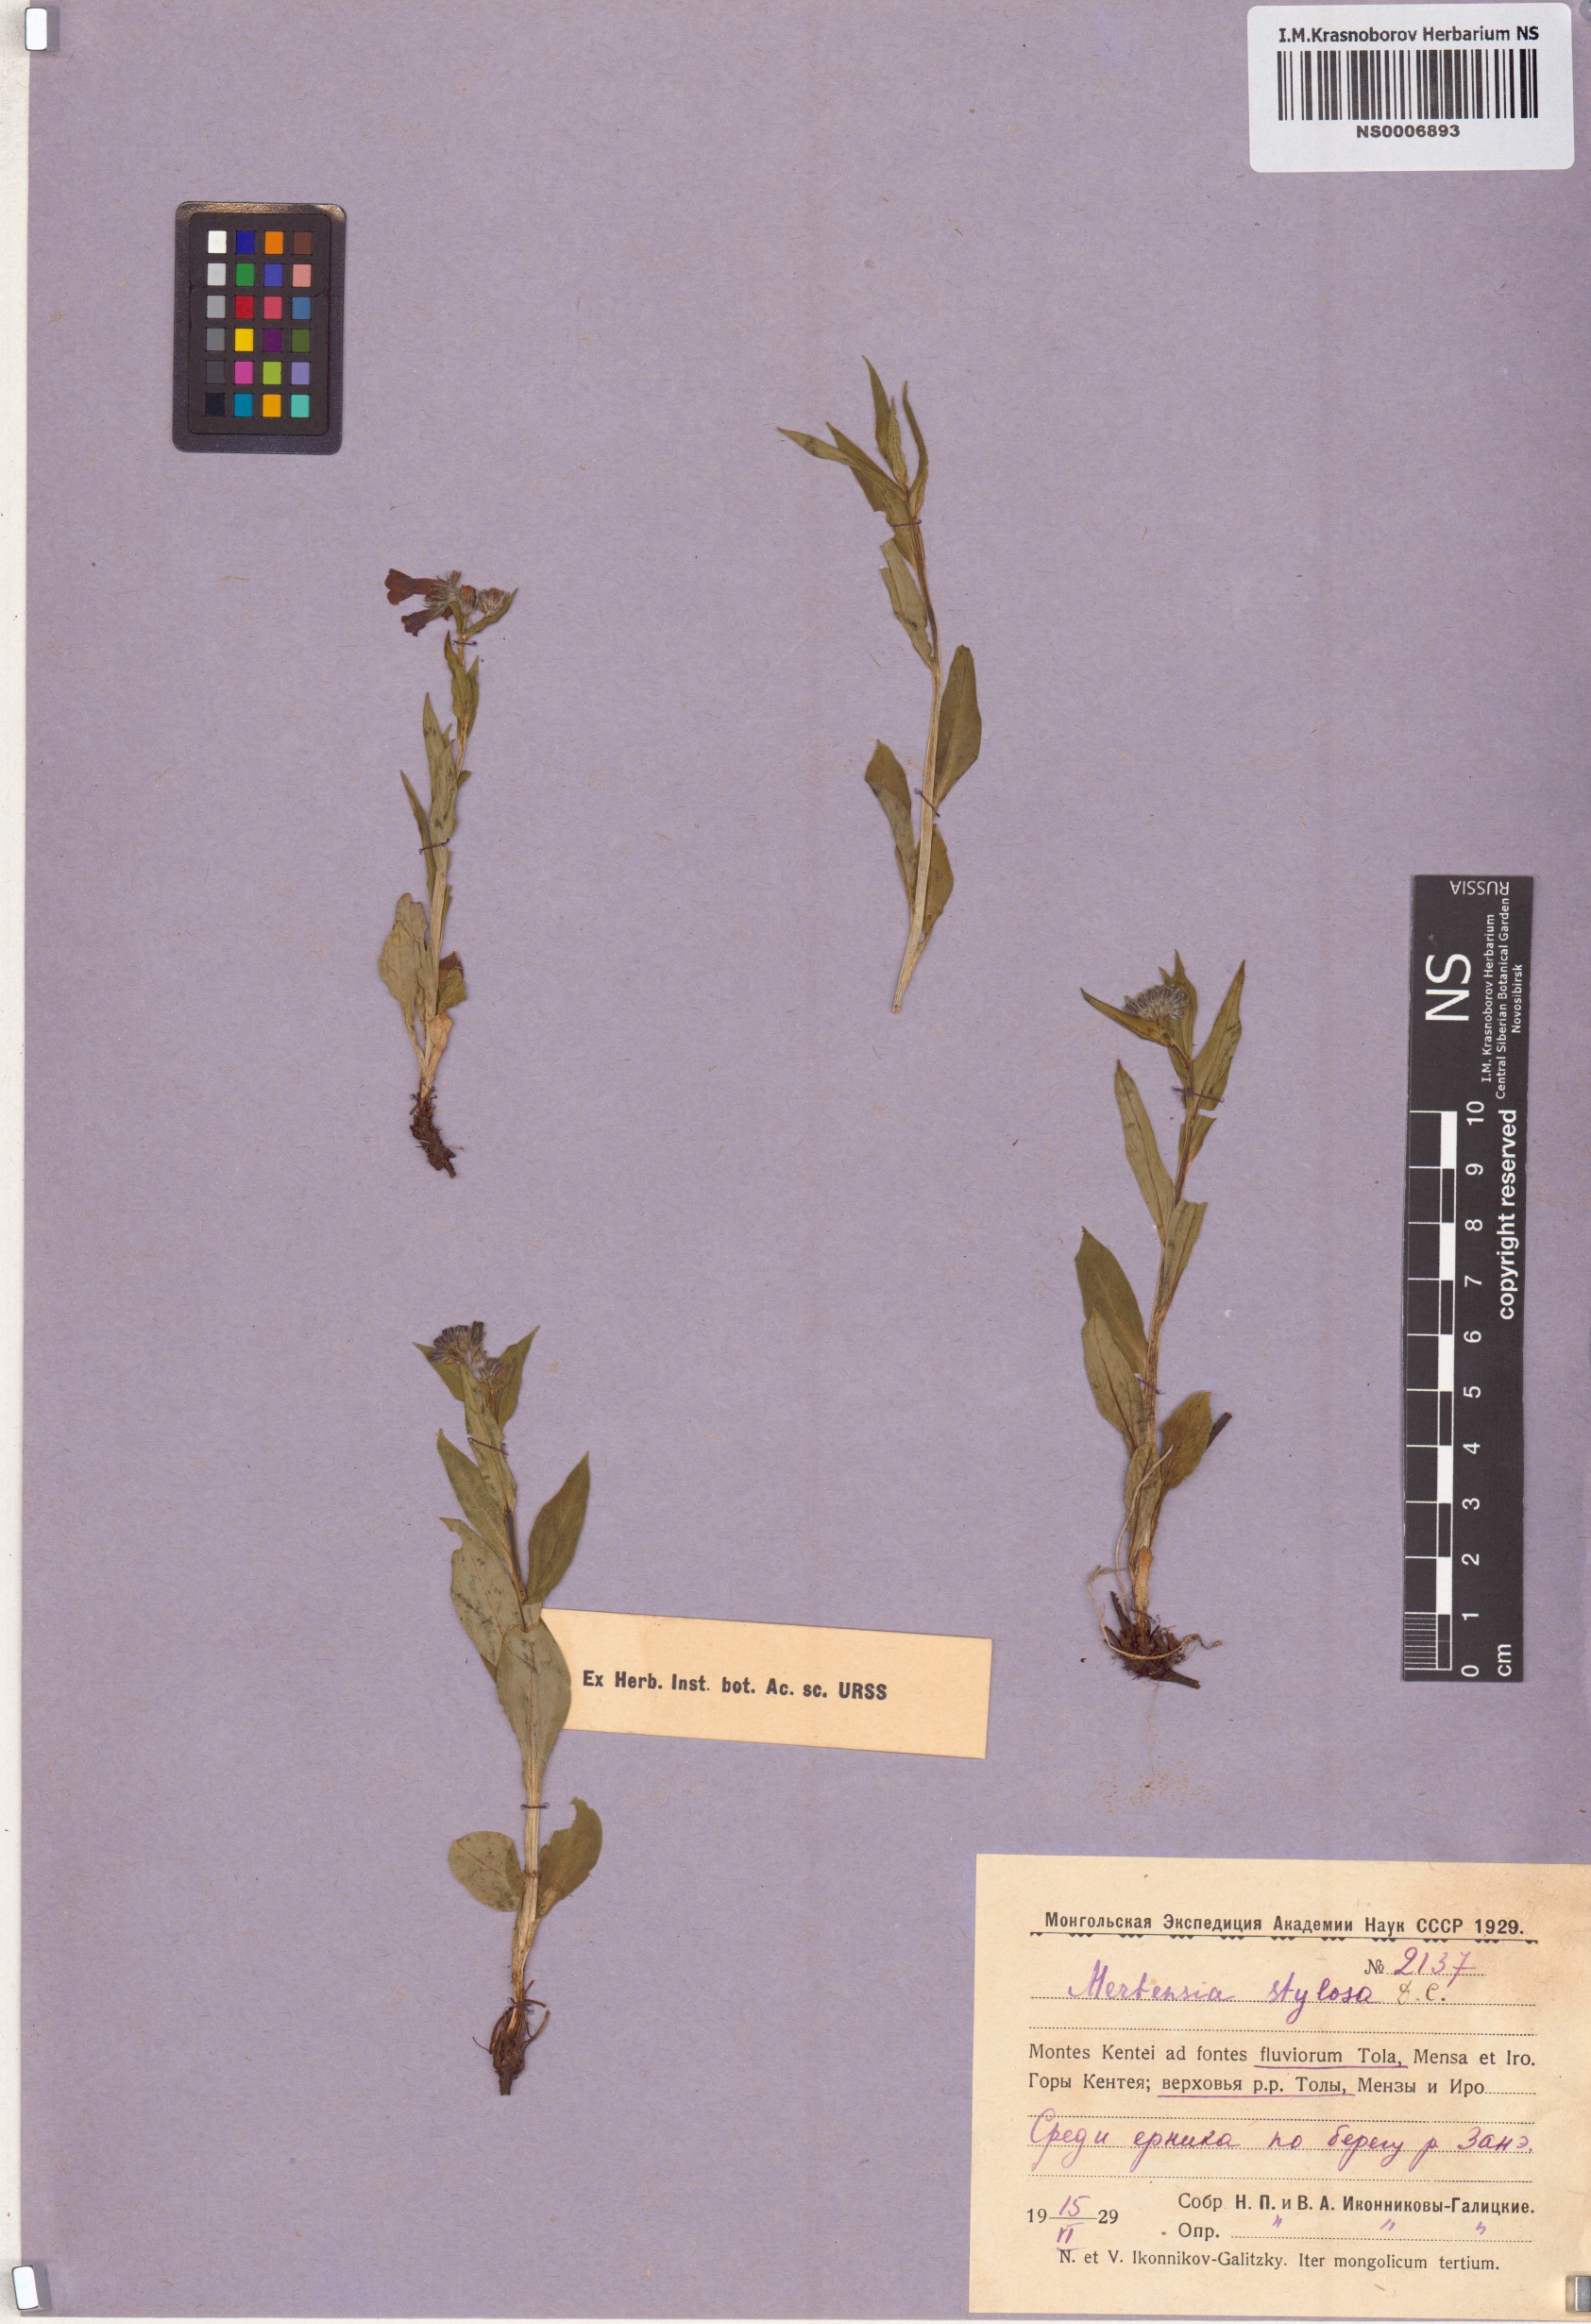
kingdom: Plantae
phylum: Tracheophyta
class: Magnoliopsida
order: Boraginales
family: Boraginaceae
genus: Mertensia
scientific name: Mertensia stylosa
